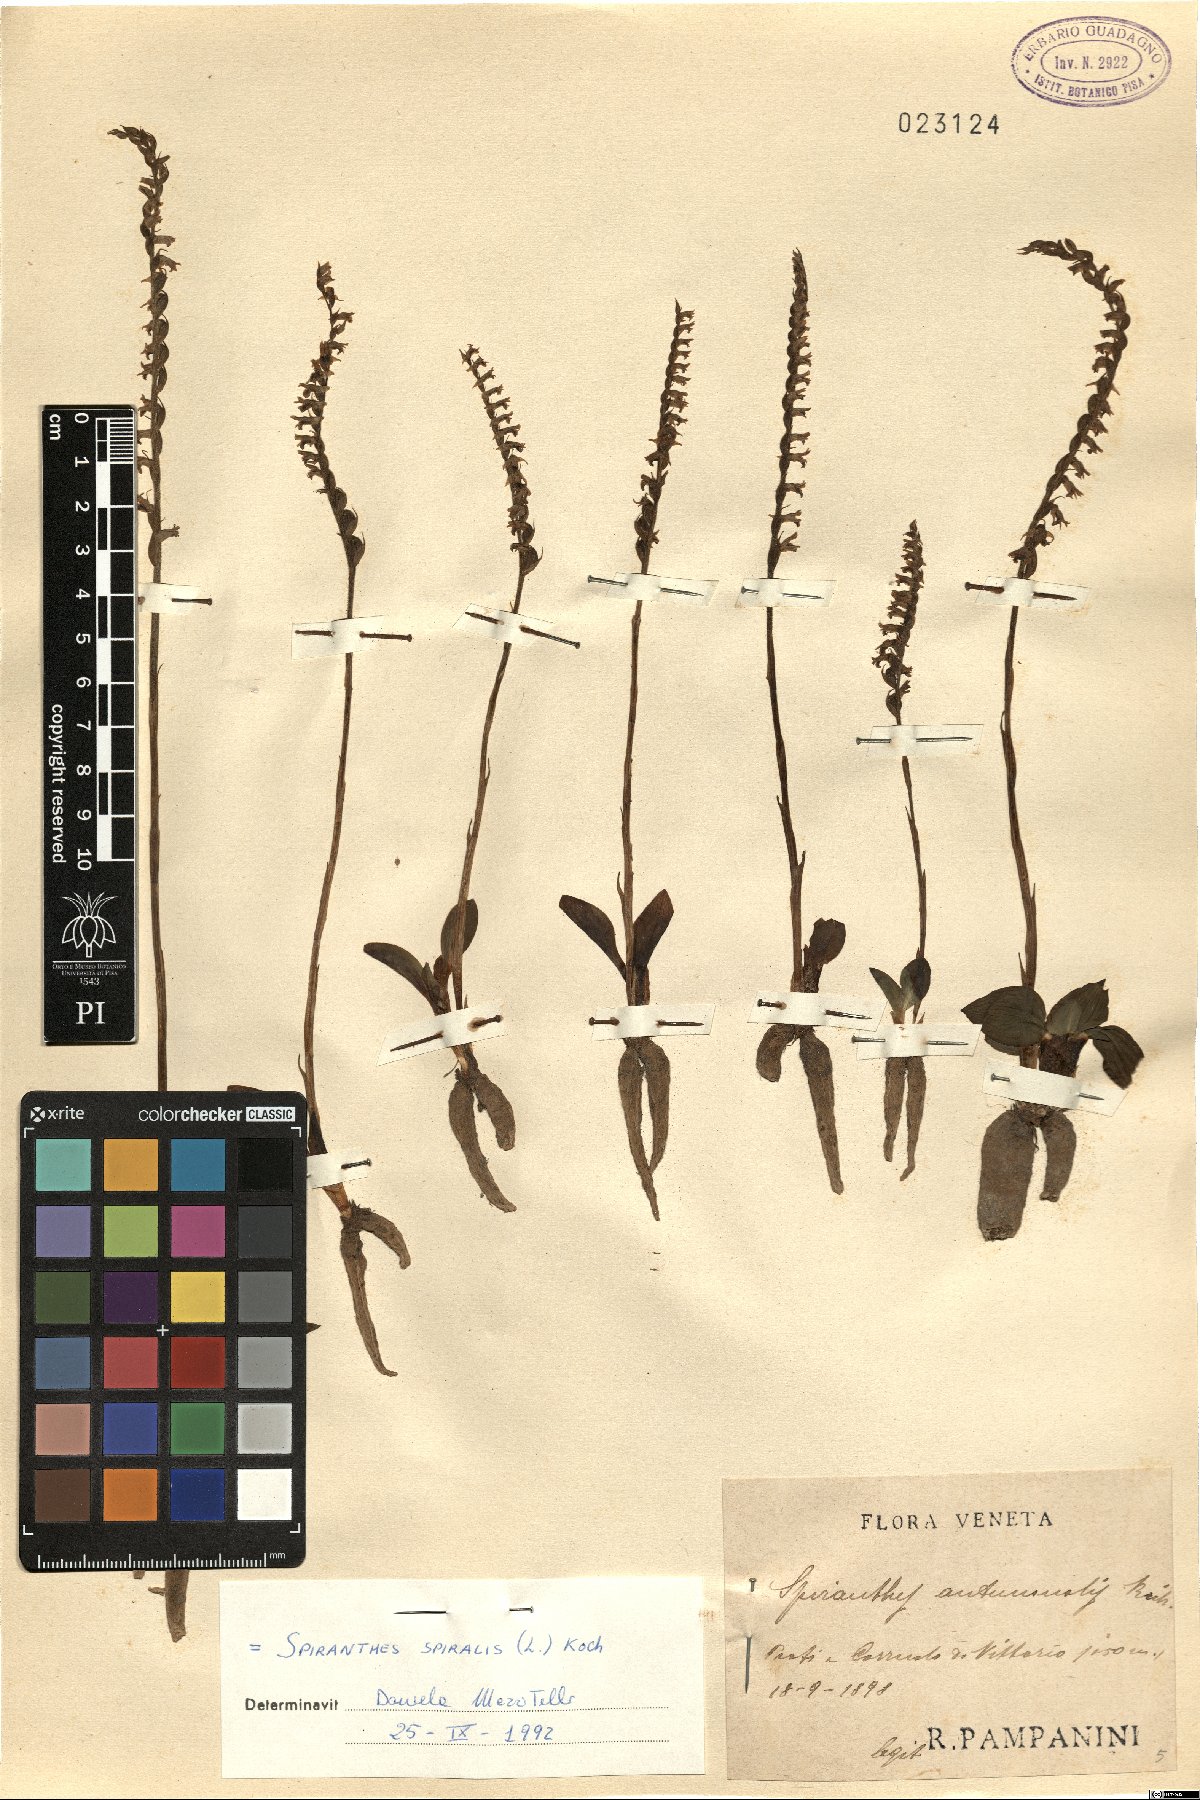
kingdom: Plantae
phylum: Tracheophyta
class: Liliopsida
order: Asparagales
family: Orchidaceae
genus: Spiranthes
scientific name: Spiranthes spiralis
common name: Autumn lady's-tresses
